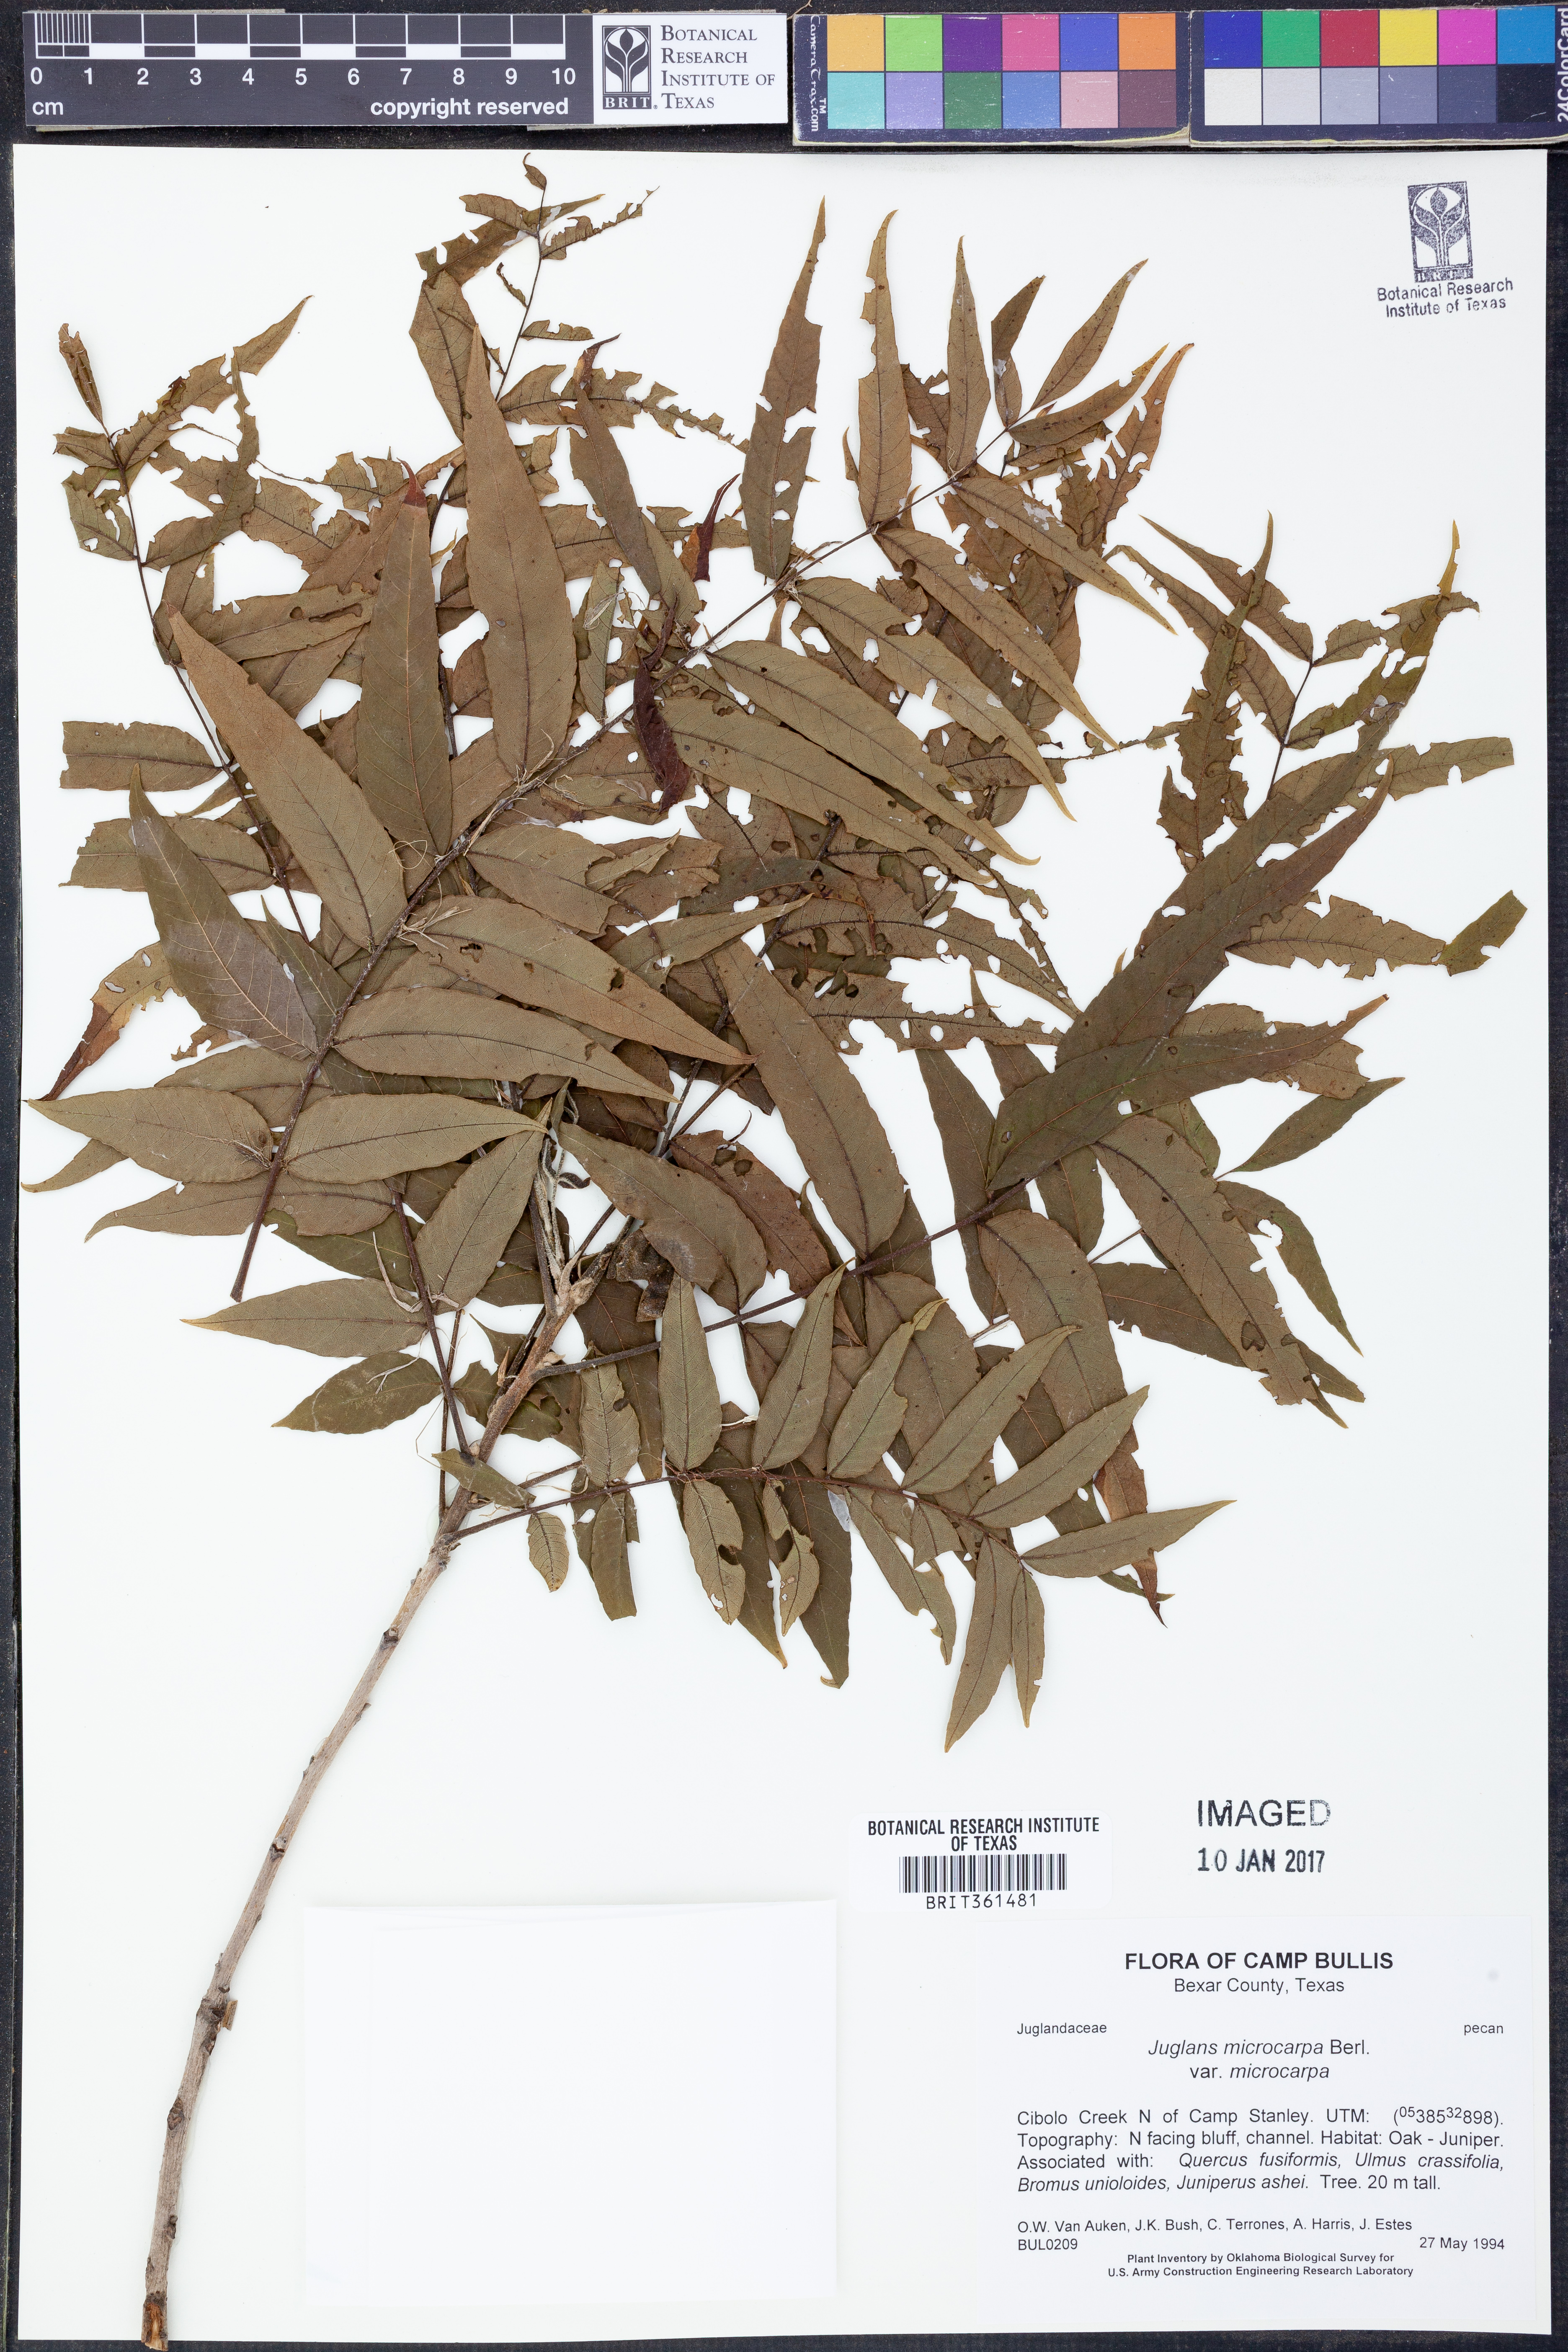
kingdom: Plantae
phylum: Tracheophyta
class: Magnoliopsida
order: Fagales
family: Juglandaceae
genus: Juglans
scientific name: Juglans microcarpa
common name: Texas walnut
